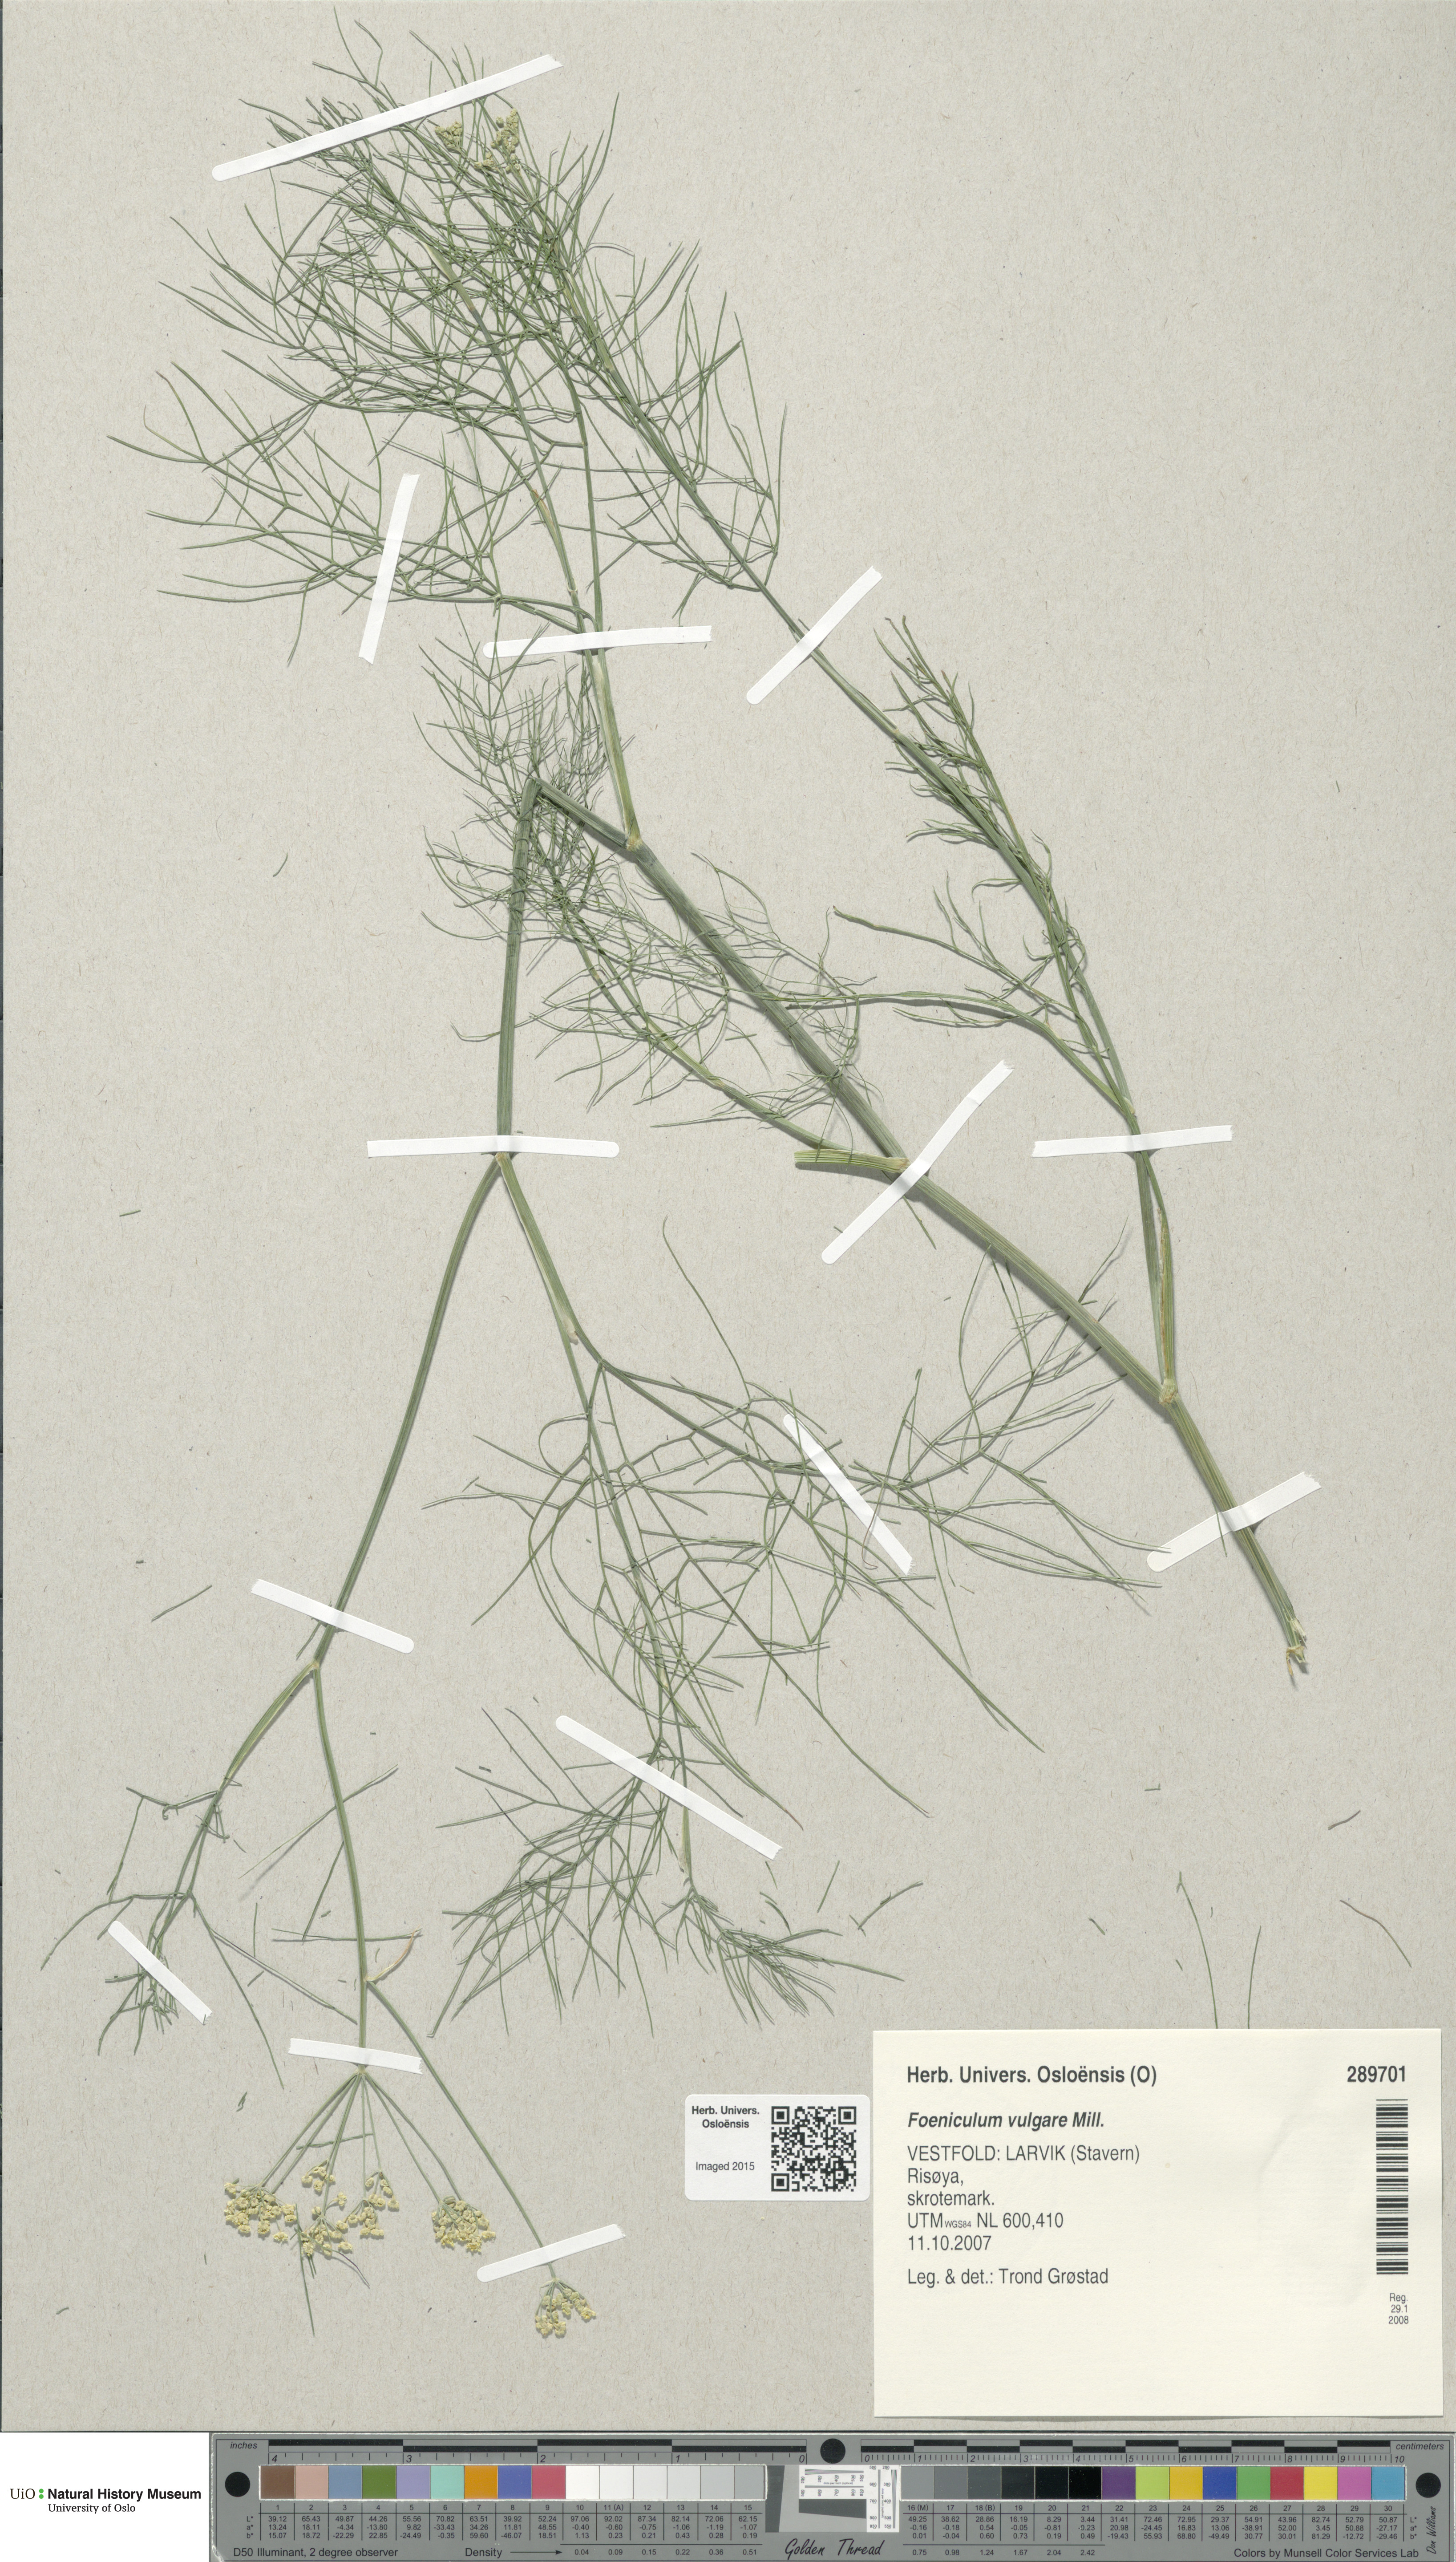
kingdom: Plantae
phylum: Tracheophyta
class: Magnoliopsida
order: Apiales
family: Apiaceae
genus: Foeniculum
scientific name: Foeniculum vulgare
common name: Fennel
